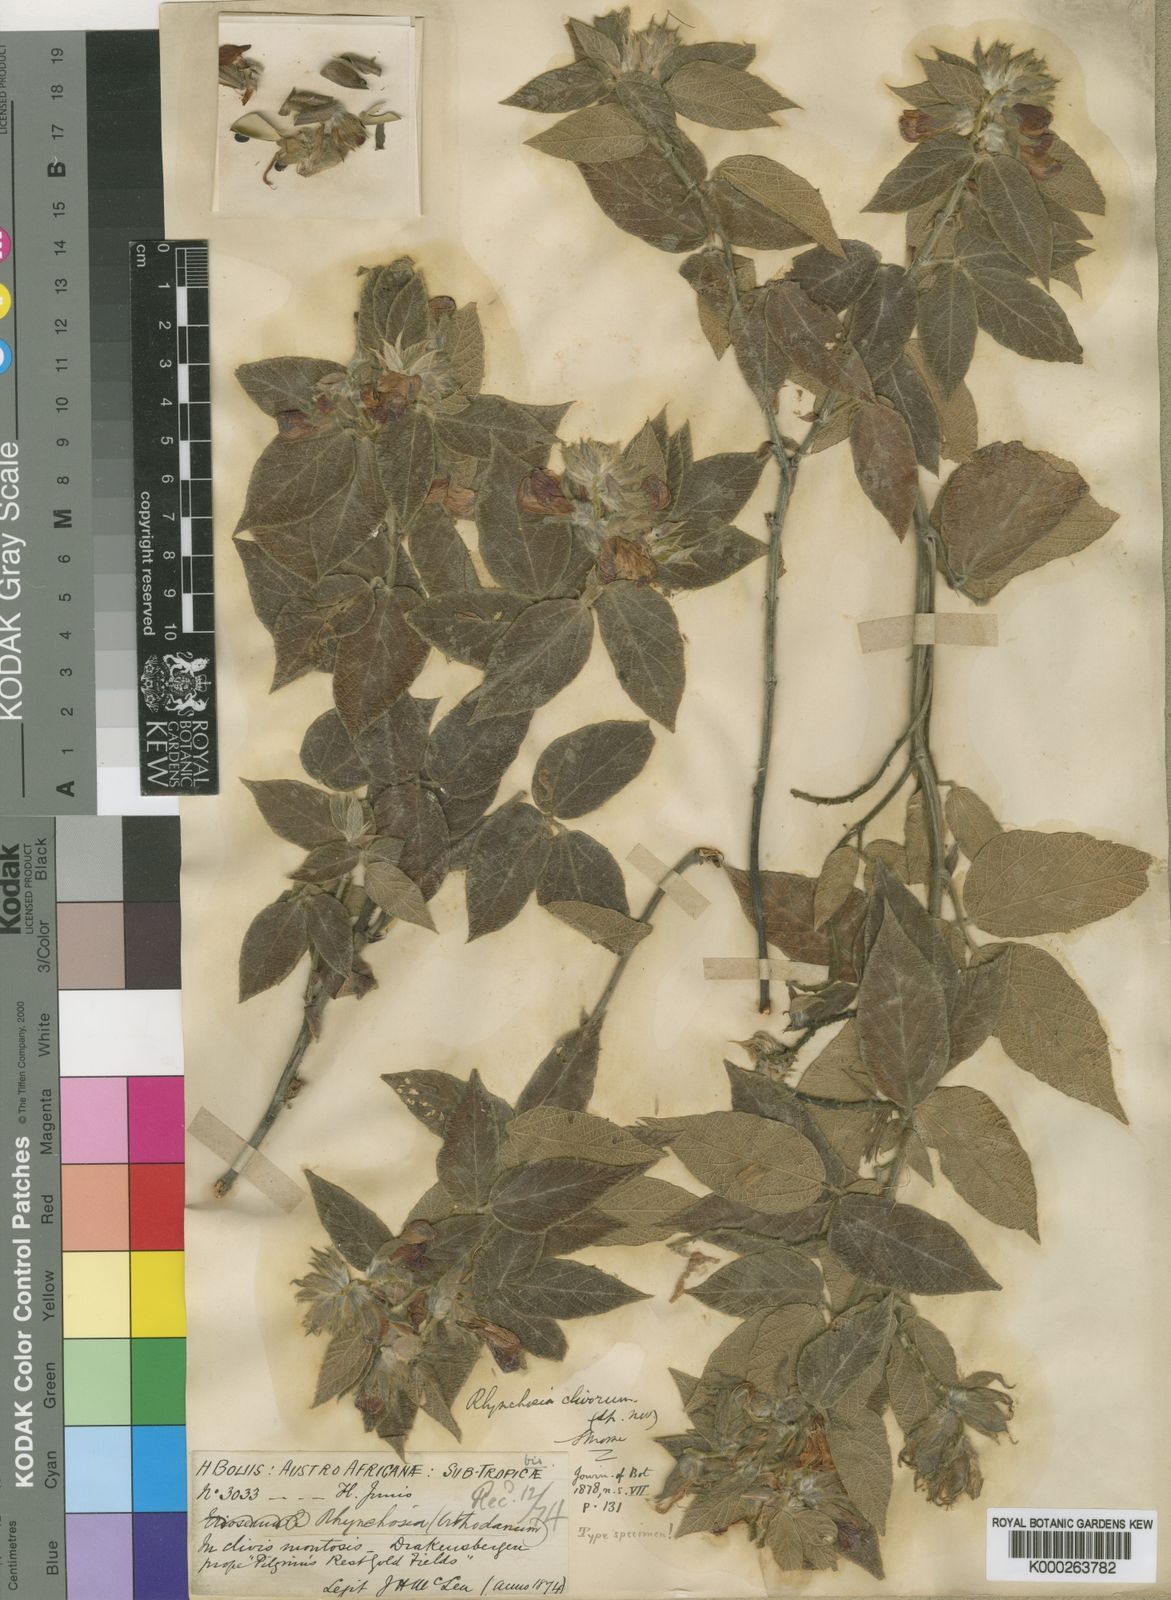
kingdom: Plantae
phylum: Tracheophyta
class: Magnoliopsida
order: Fabales
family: Fabaceae
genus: Rhynchosia
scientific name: Rhynchosia clivorum
